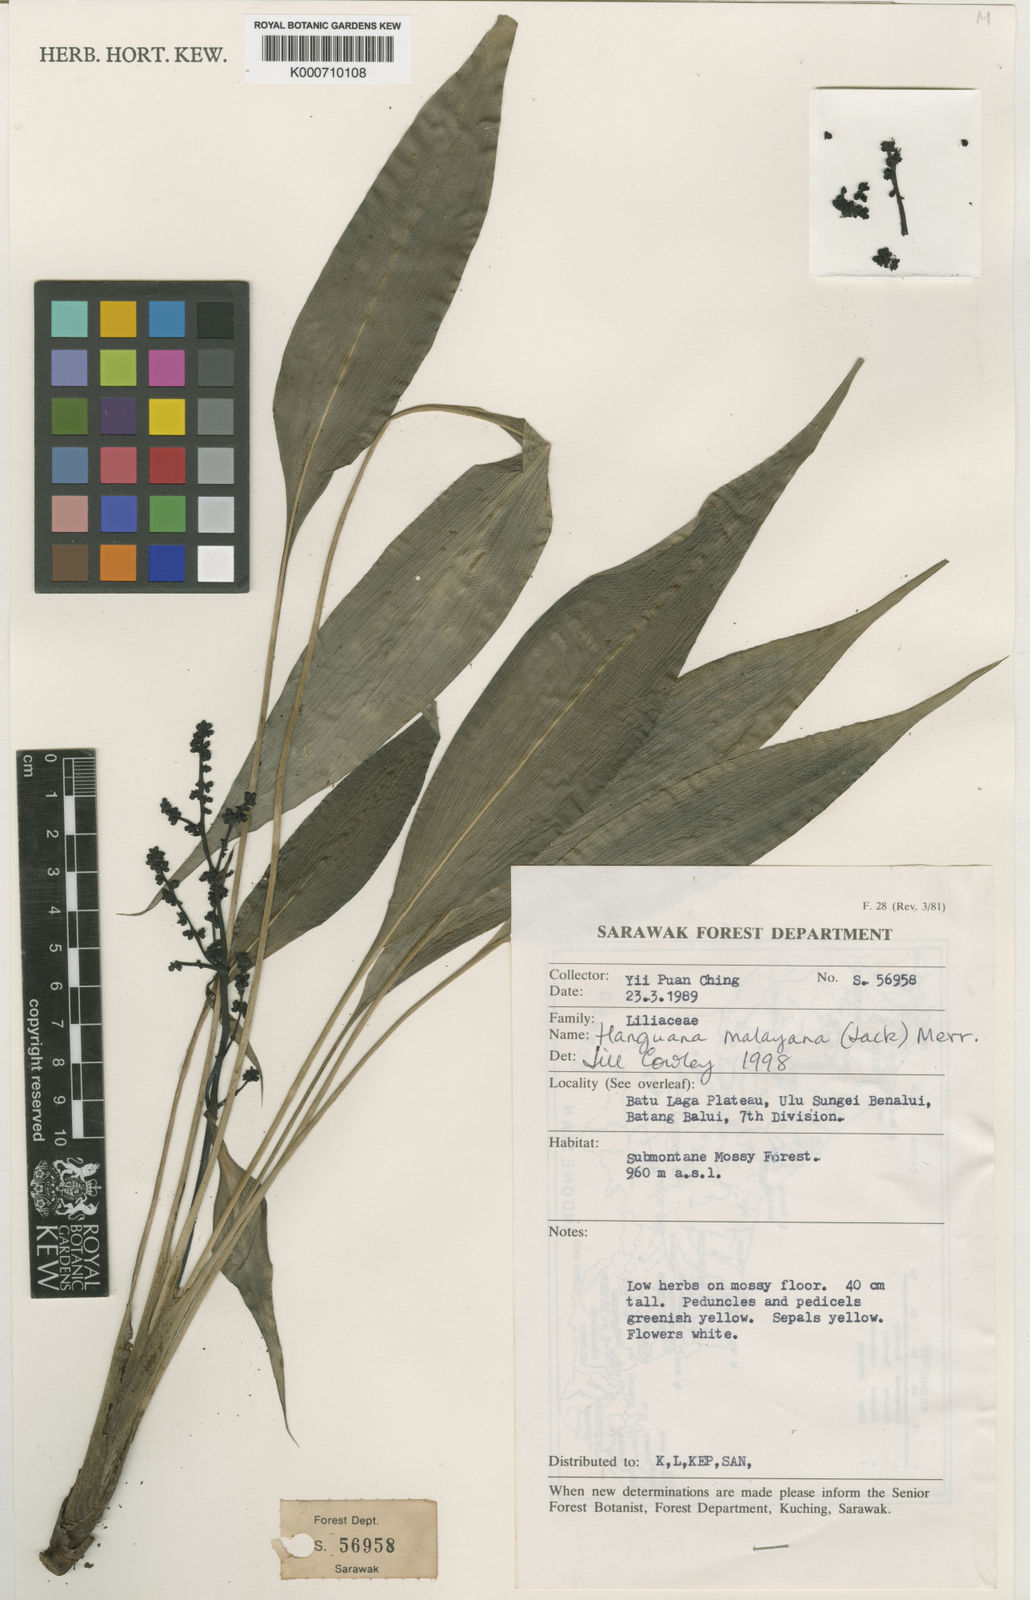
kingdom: Plantae
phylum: Tracheophyta
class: Liliopsida
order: Commelinales
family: Hanguanaceae
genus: Hanguana
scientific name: Hanguana malayana
